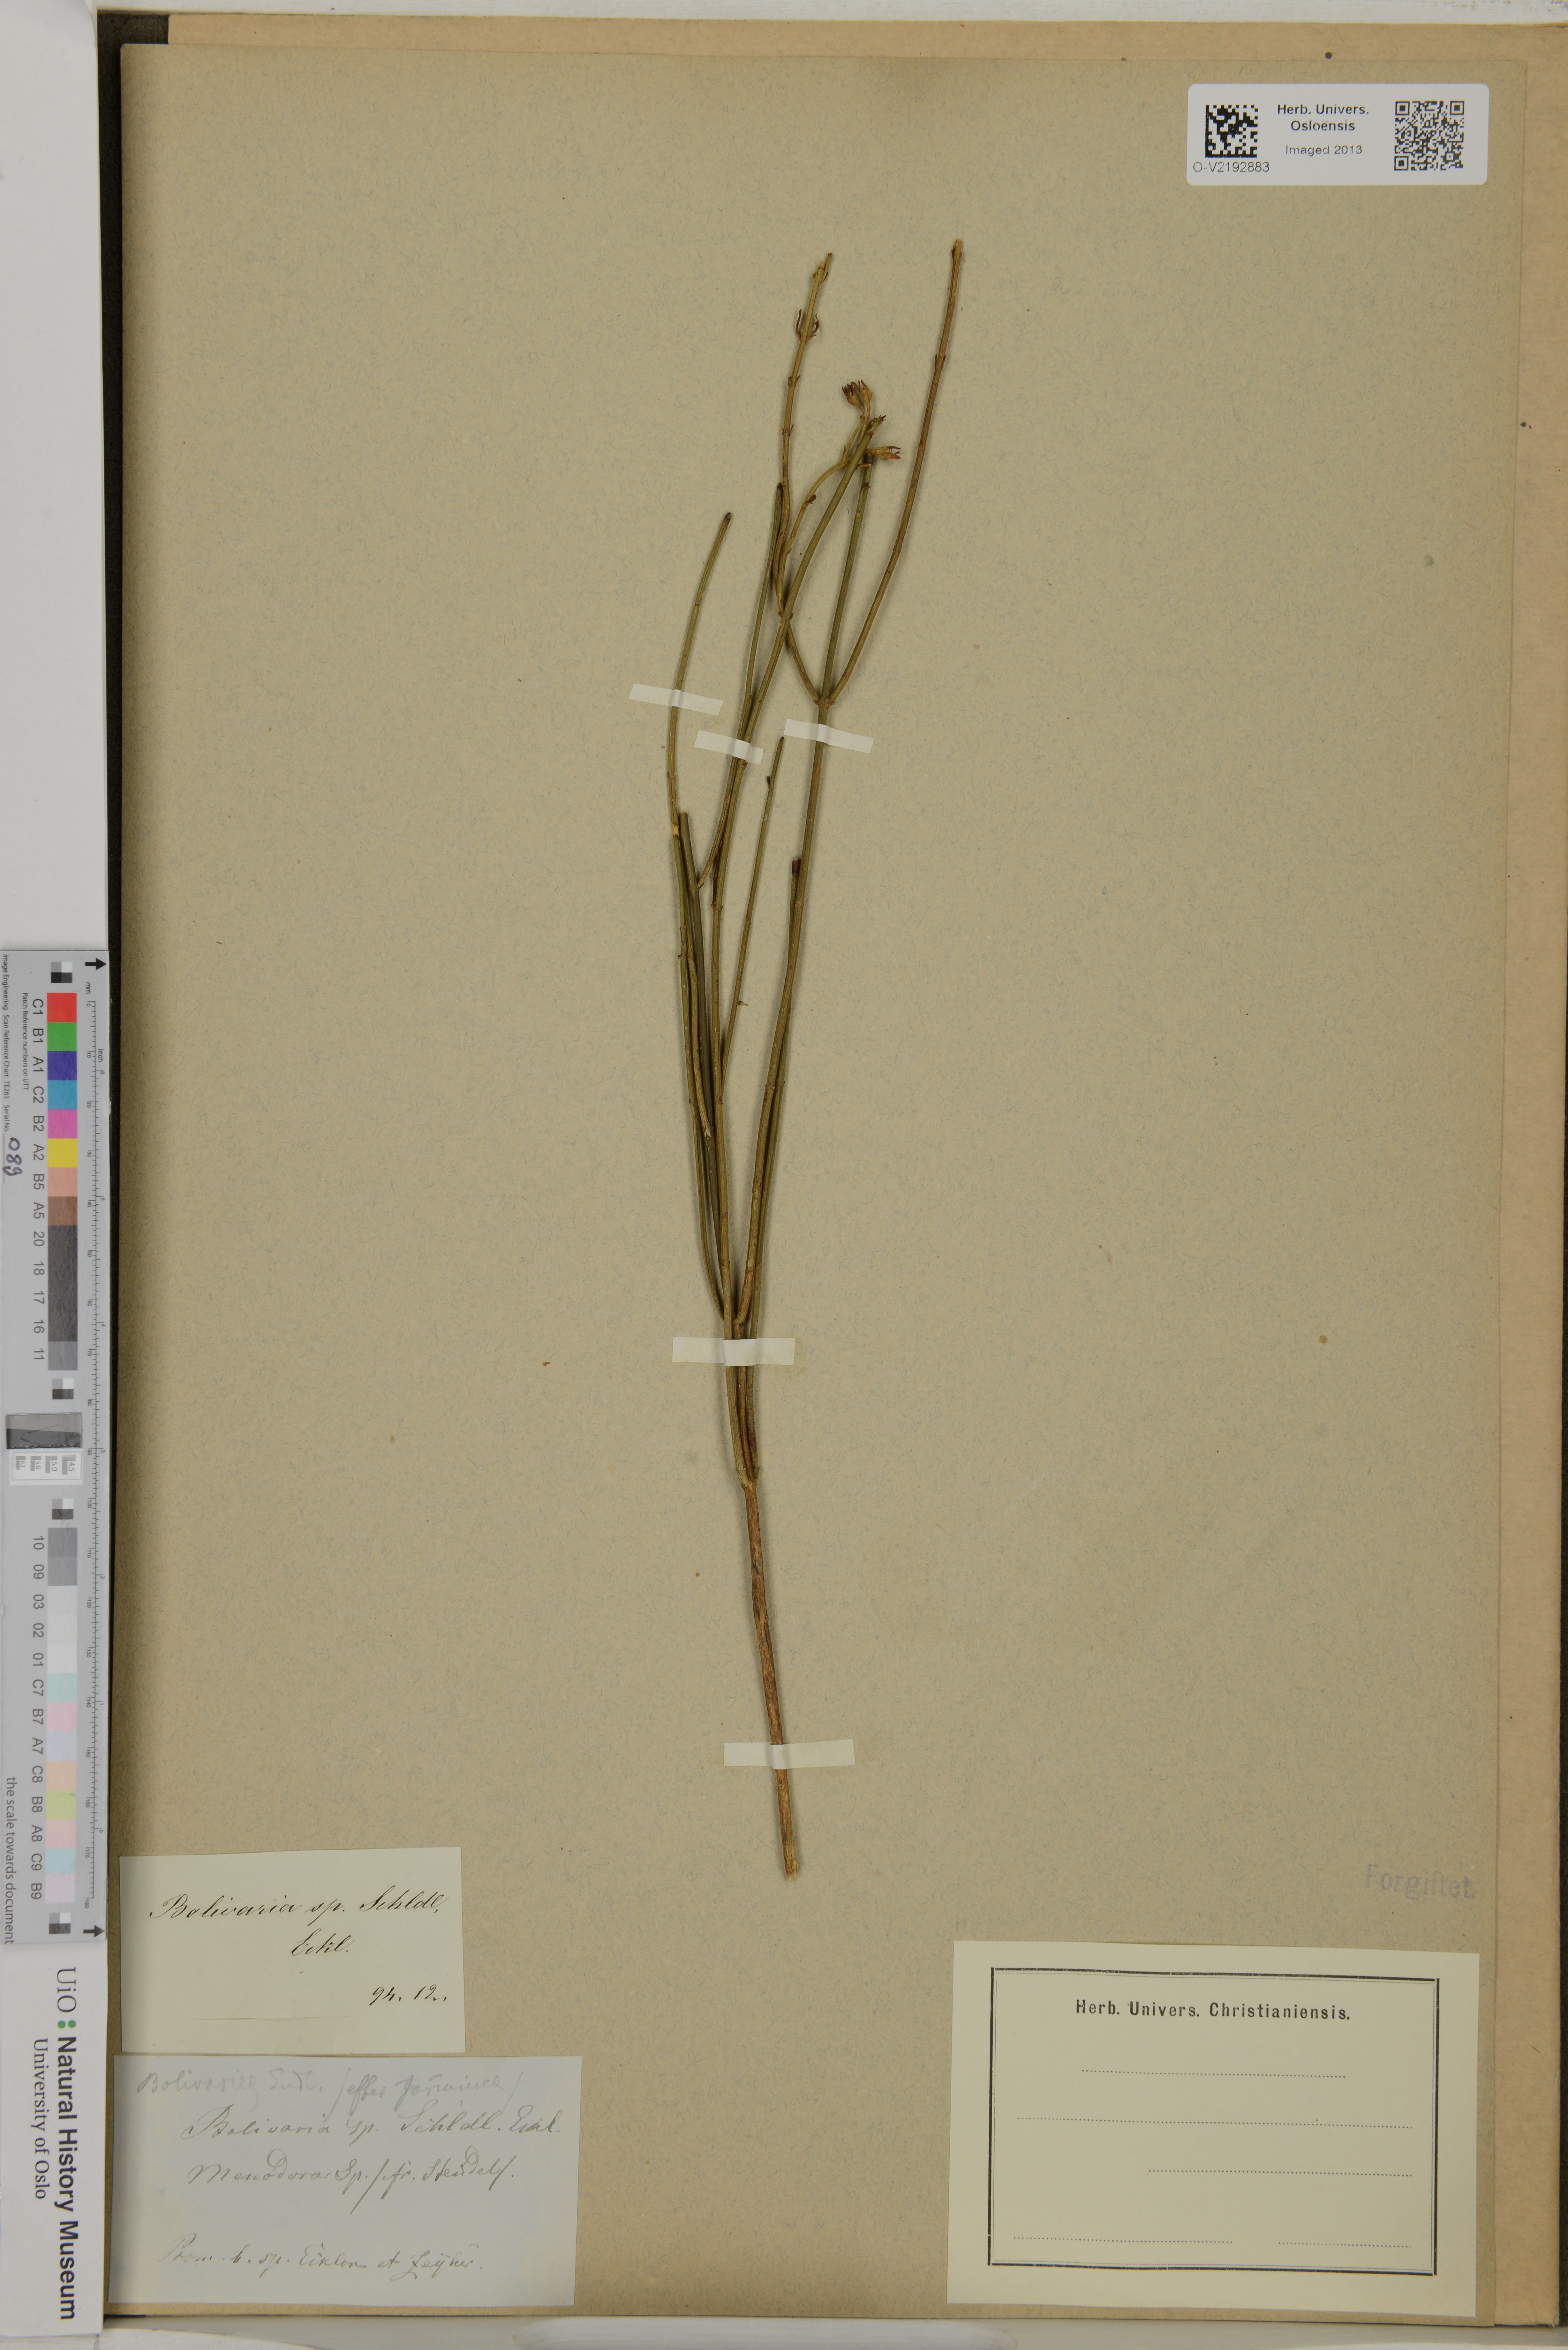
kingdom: Plantae
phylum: Tracheophyta
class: Magnoliopsida
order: Lamiales
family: Oleaceae
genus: Menodora
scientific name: Menodora
